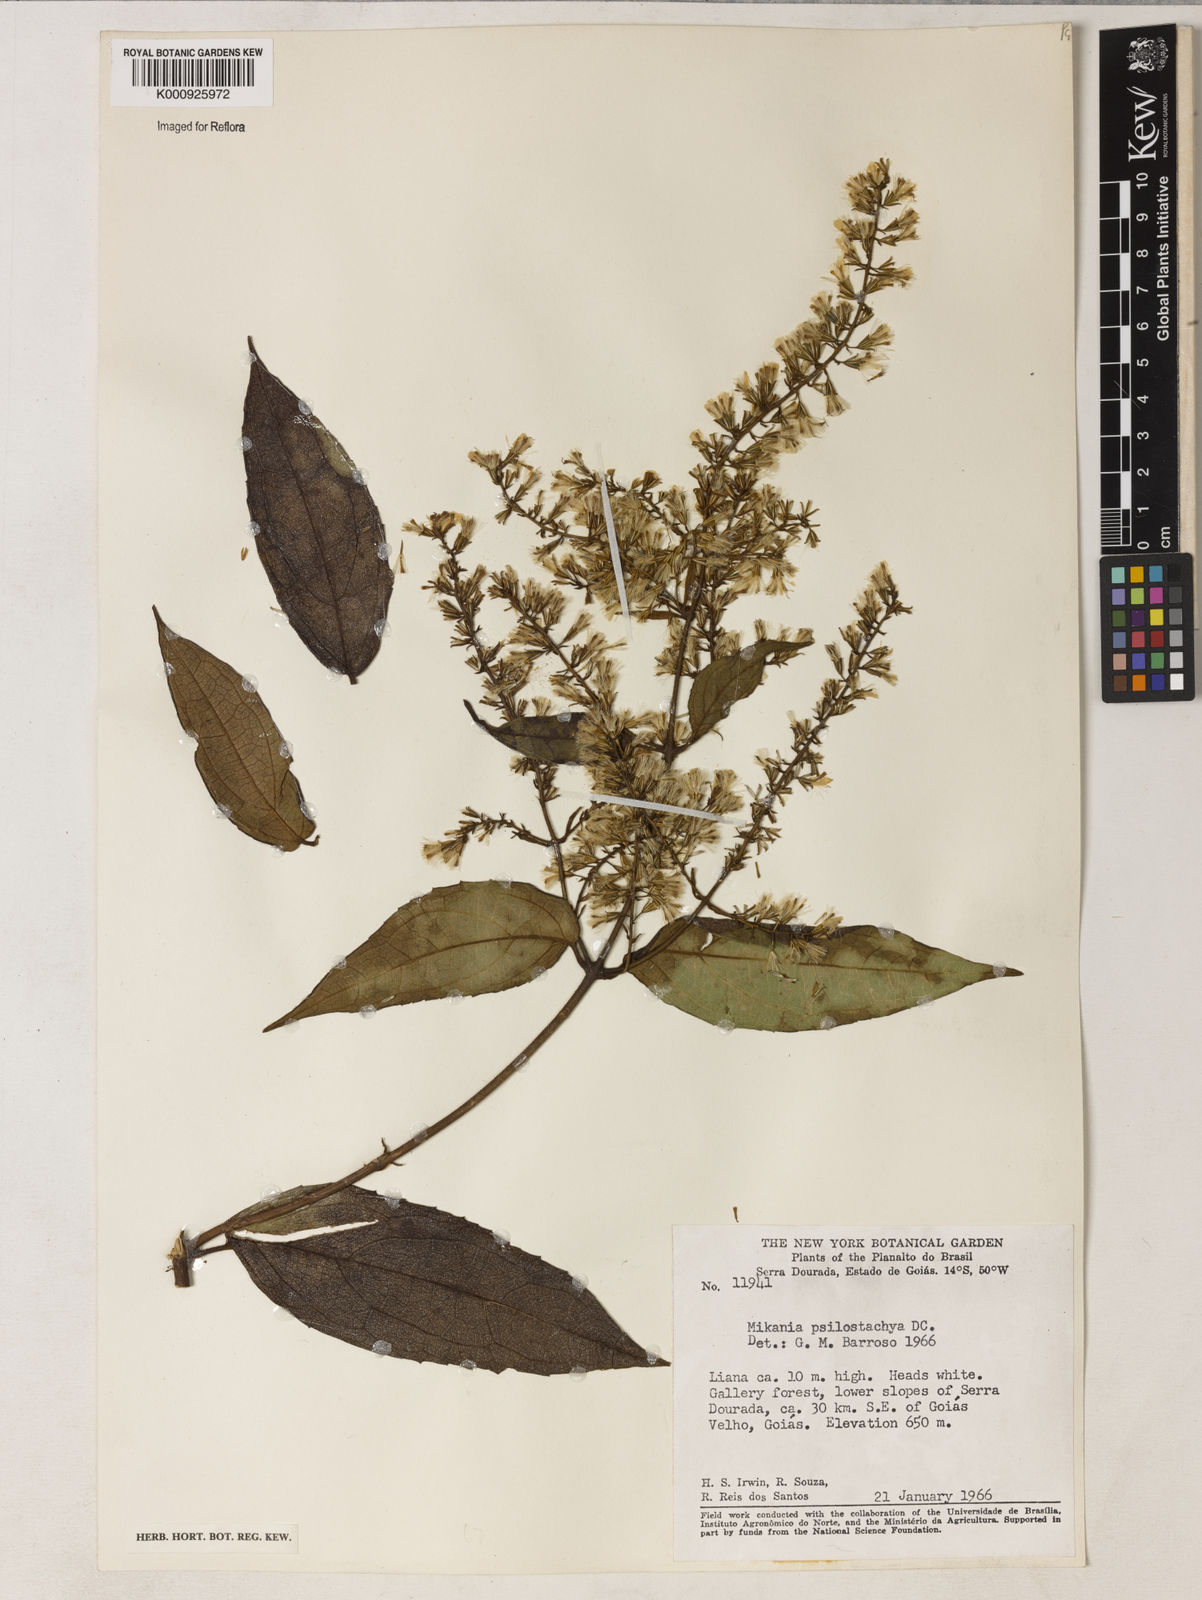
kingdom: Plantae
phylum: Tracheophyta
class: Magnoliopsida
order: Asterales
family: Asteraceae
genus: Mikania
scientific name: Mikania psilostachya
